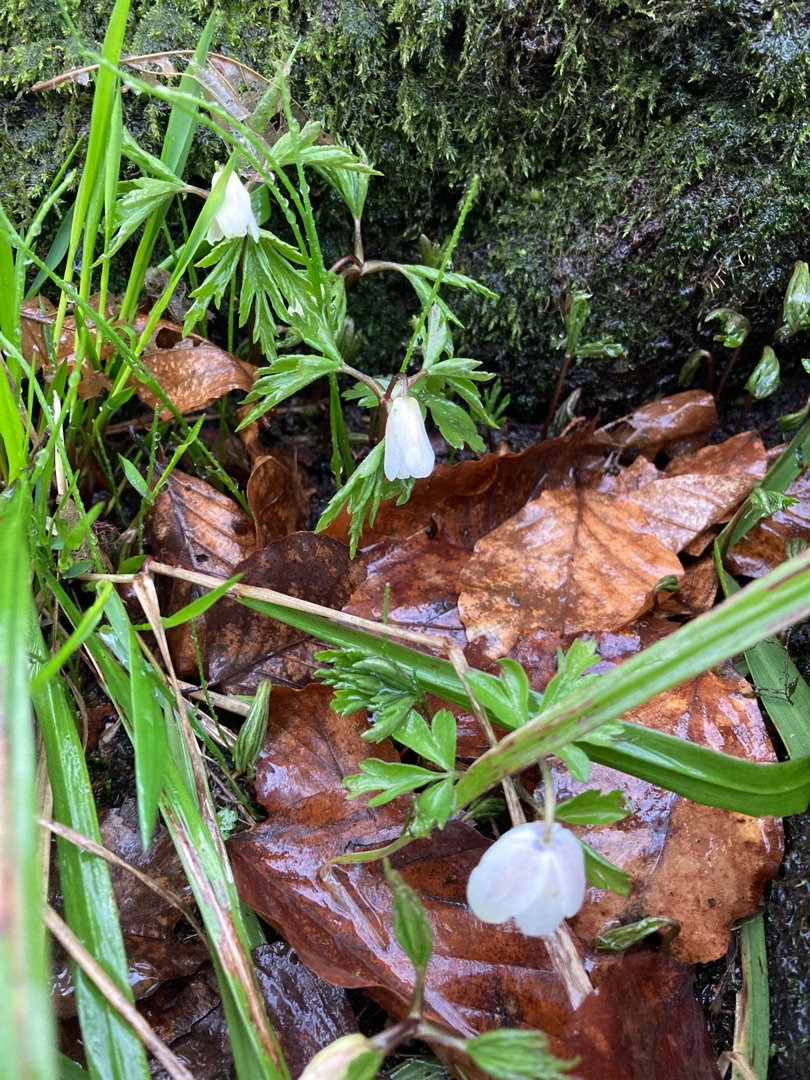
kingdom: Plantae
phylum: Tracheophyta
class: Magnoliopsida
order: Ranunculales
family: Ranunculaceae
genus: Anemone
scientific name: Anemone nemorosa
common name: Hvid anemone
